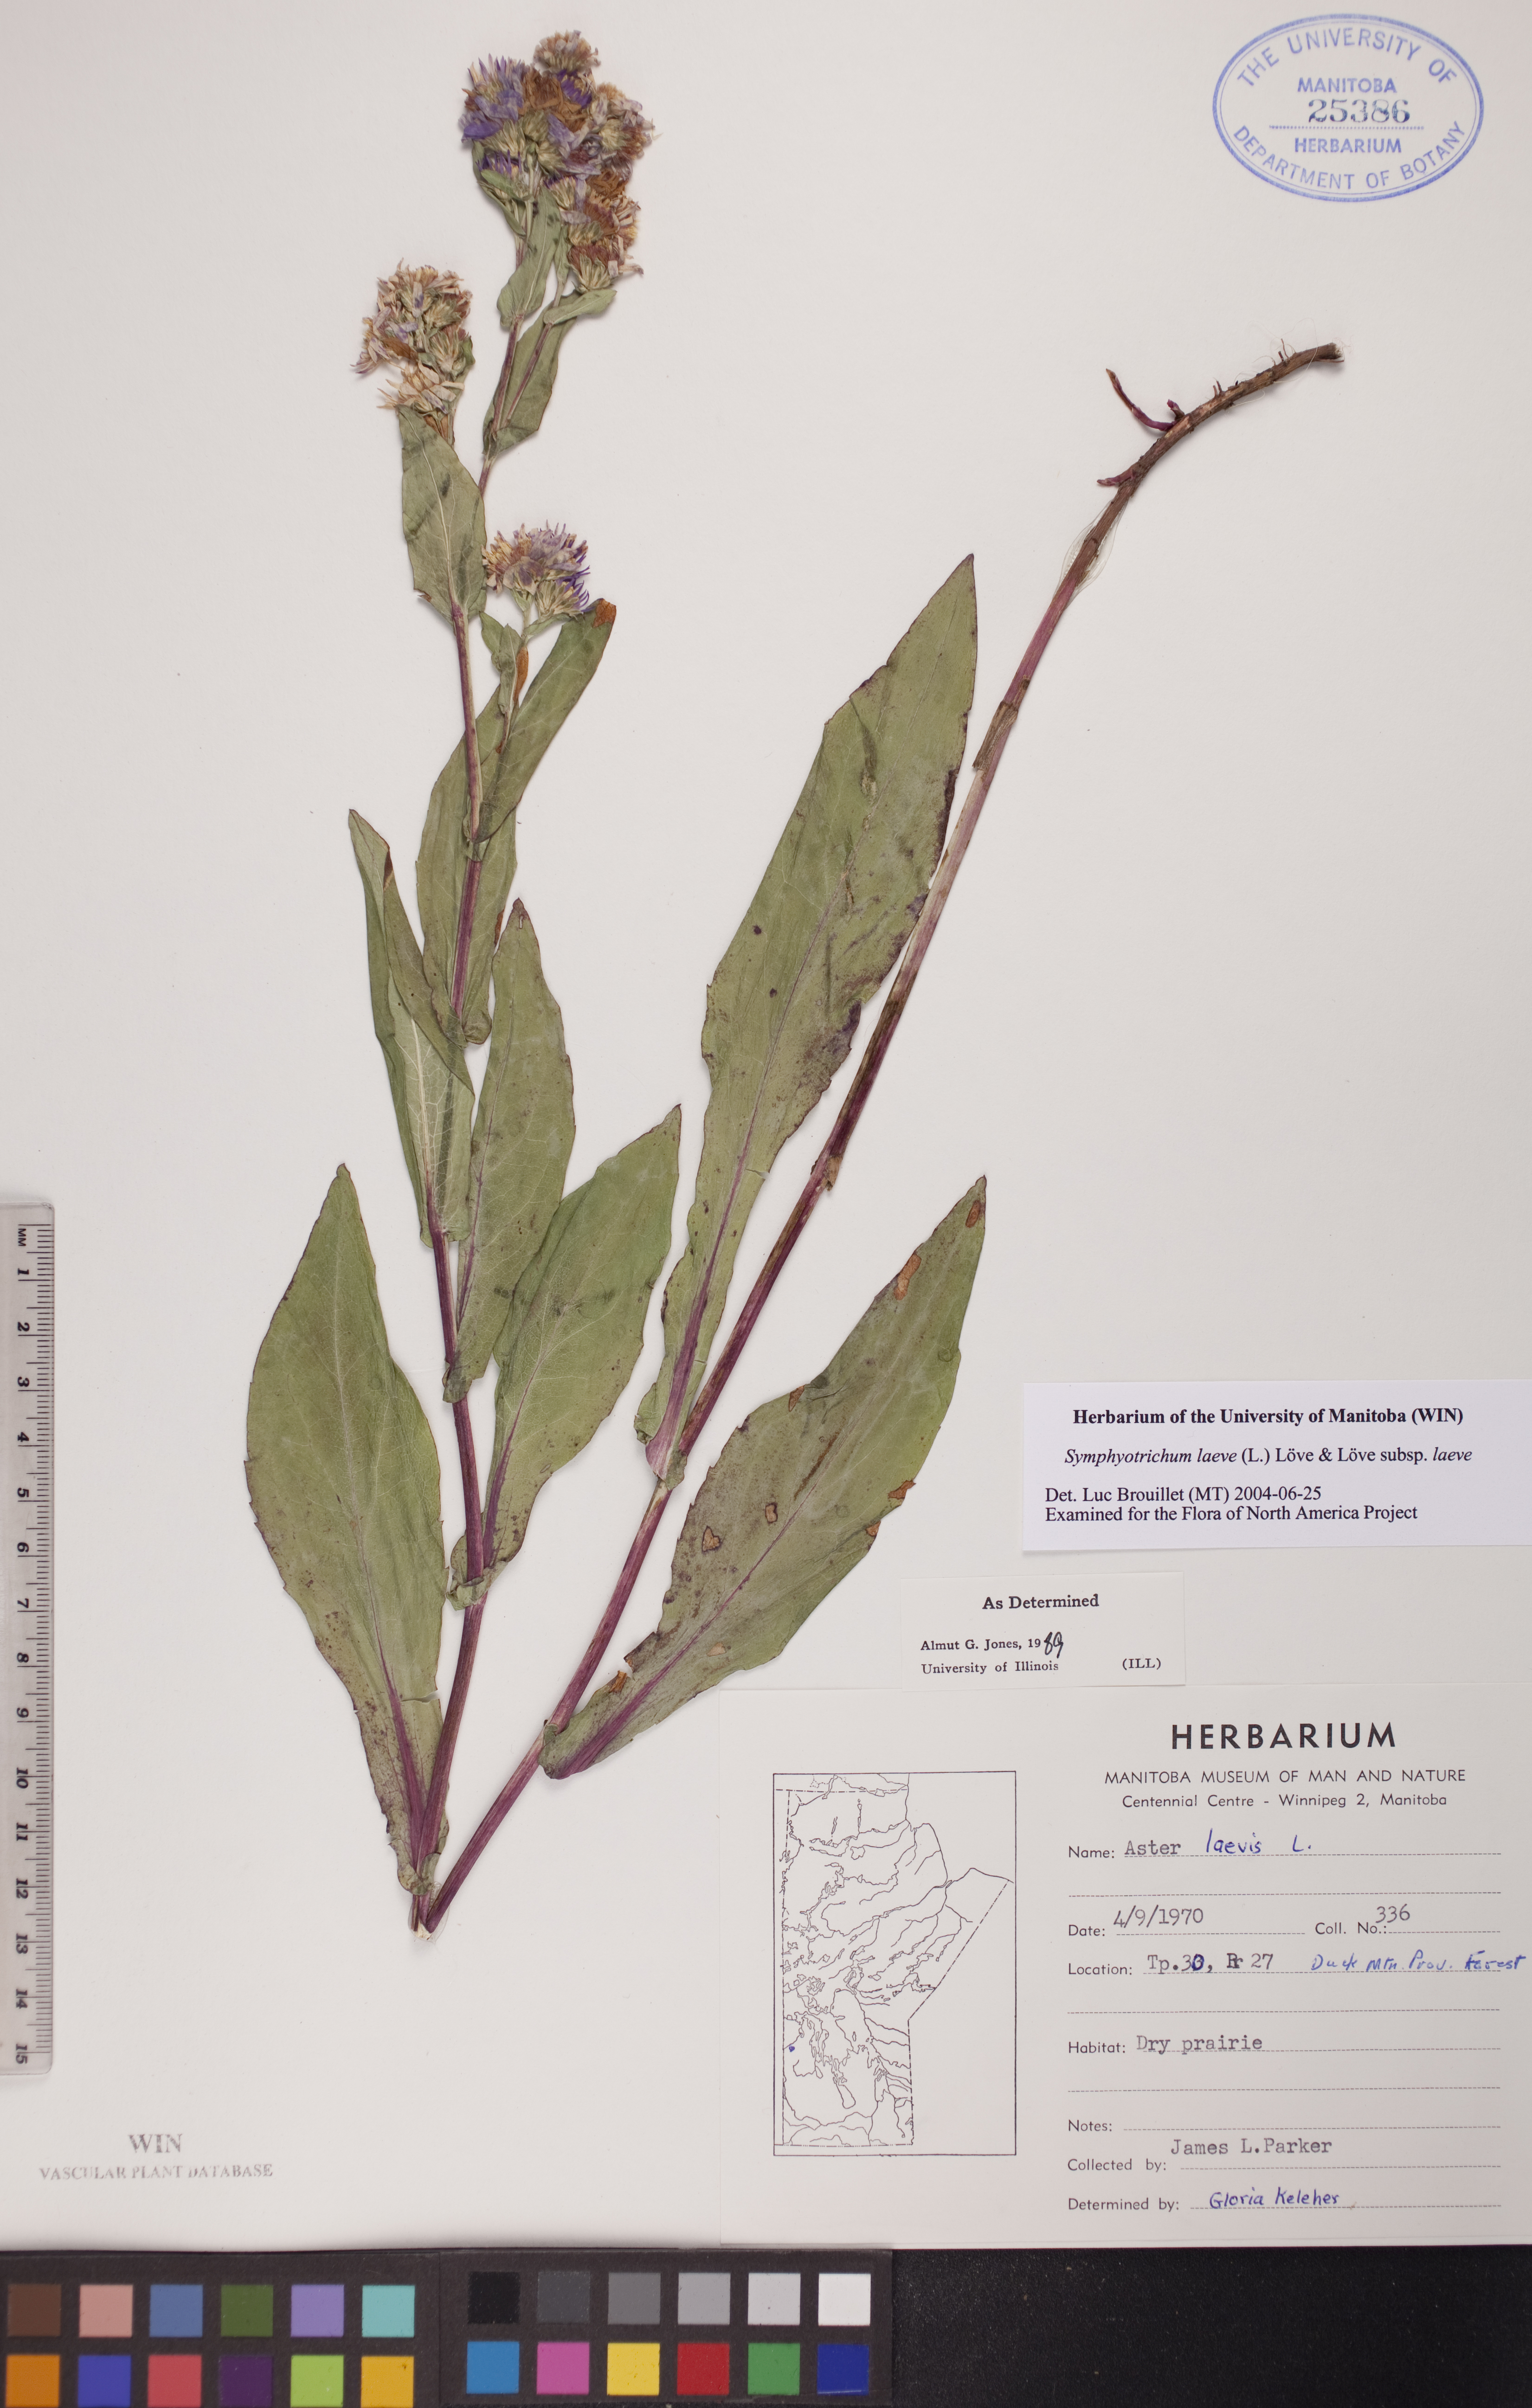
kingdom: Plantae
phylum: Tracheophyta
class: Magnoliopsida
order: Asterales
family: Asteraceae
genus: Symphyotrichum
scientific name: Symphyotrichum laeve
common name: Glaucous aster
